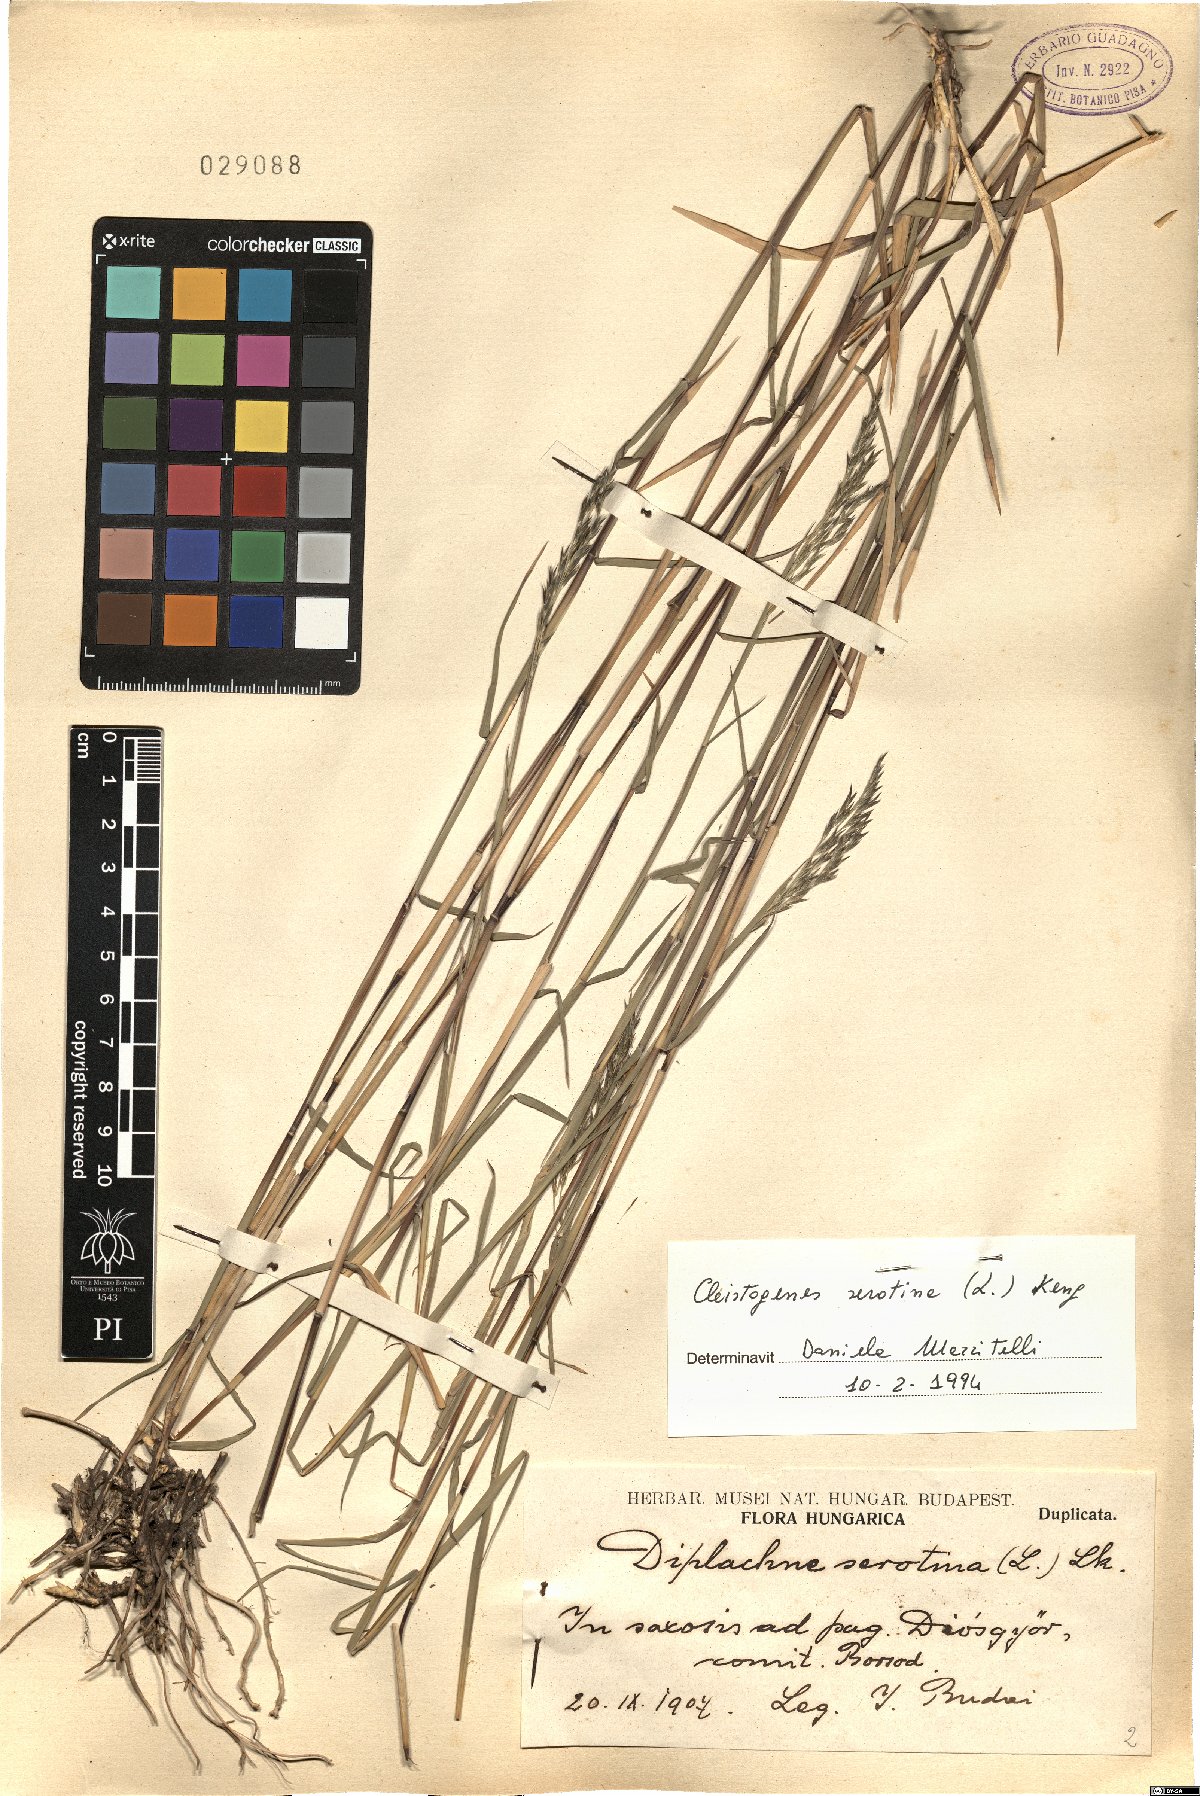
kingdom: Plantae
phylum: Tracheophyta
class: Liliopsida
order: Poales
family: Poaceae
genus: Cleistogenes
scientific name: Cleistogenes serotina
